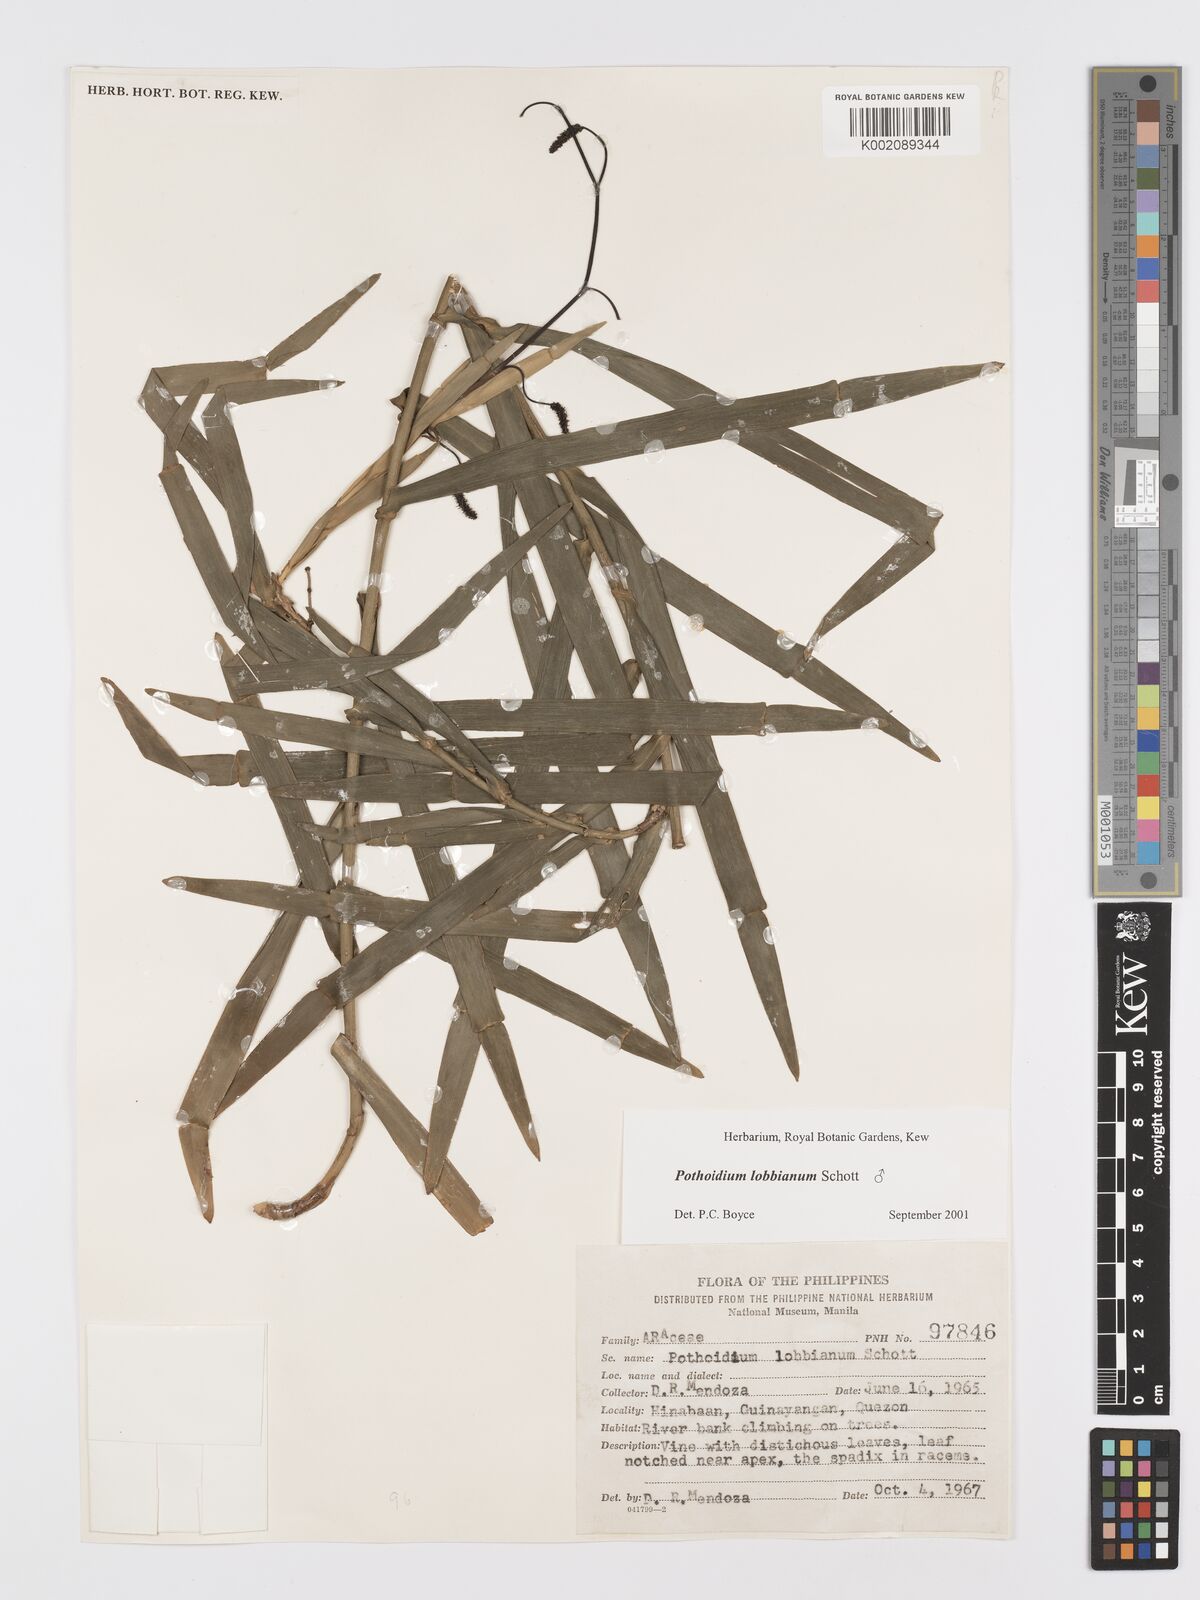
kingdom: Plantae
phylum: Tracheophyta
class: Liliopsida
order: Alismatales
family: Araceae
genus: Pothoidium
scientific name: Pothoidium lobbianum
